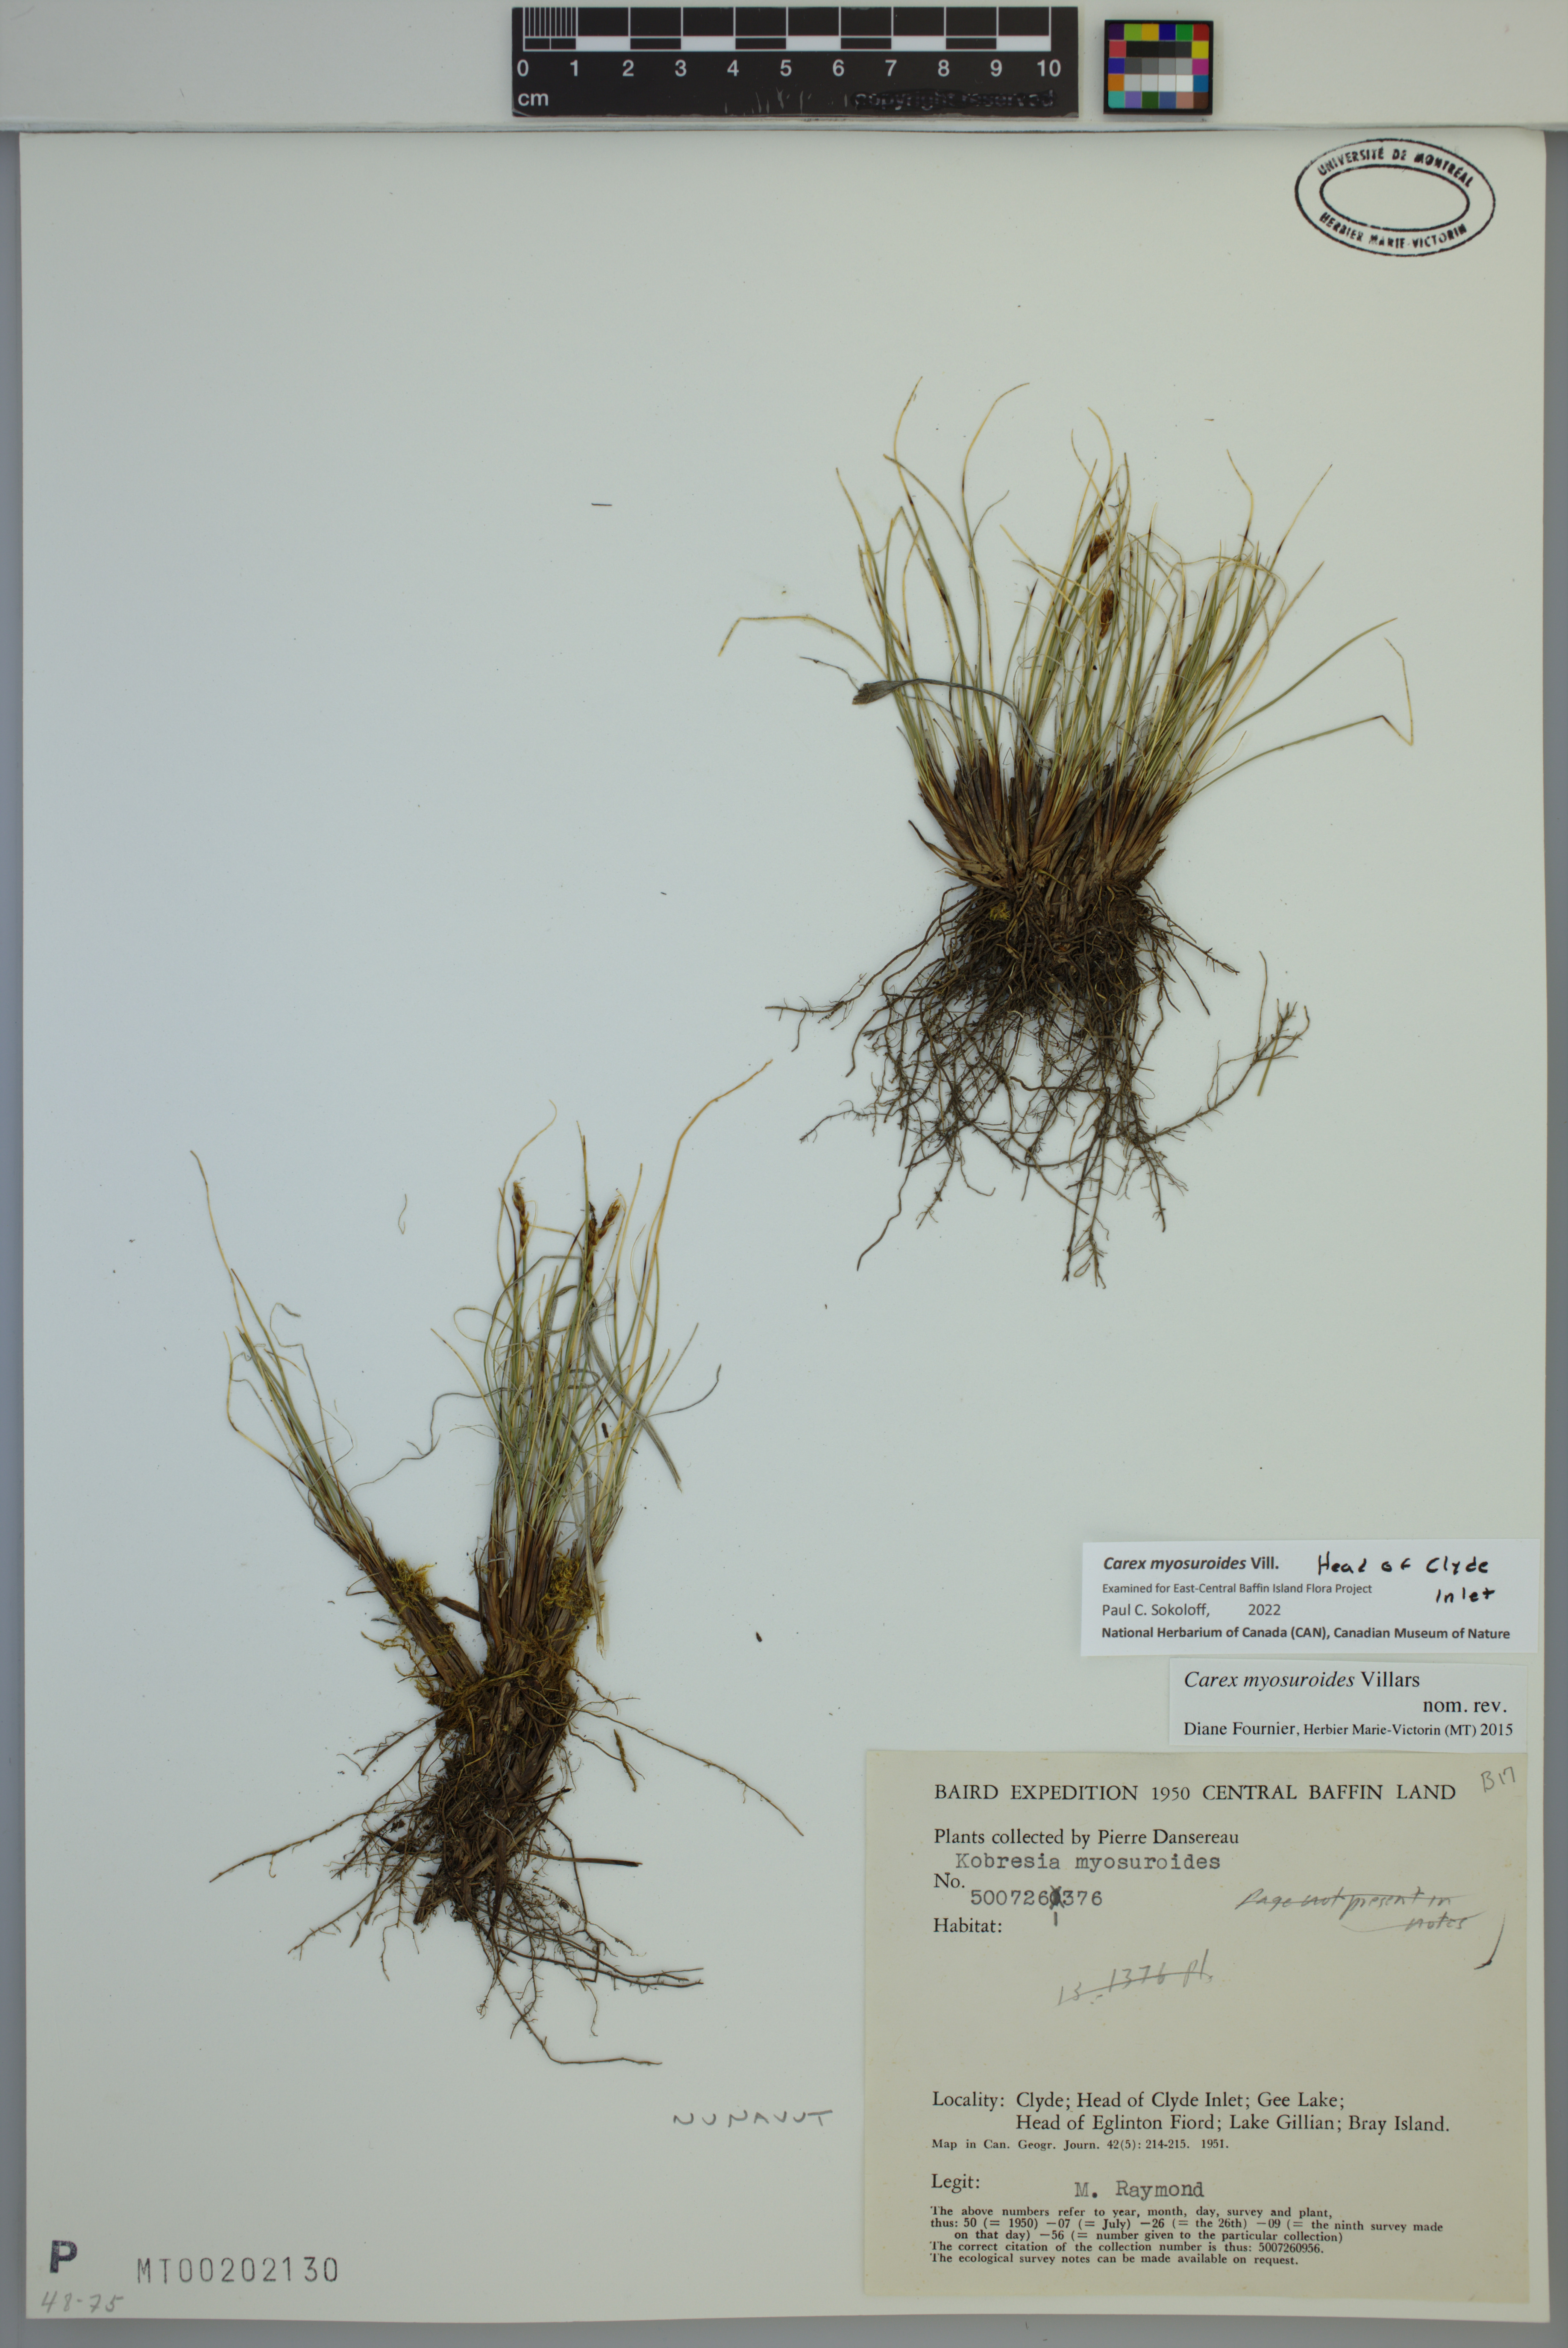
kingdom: Plantae
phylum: Tracheophyta
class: Liliopsida
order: Poales
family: Cyperaceae
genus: Carex
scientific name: Carex myosuroides
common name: Bellard's bog sedge
